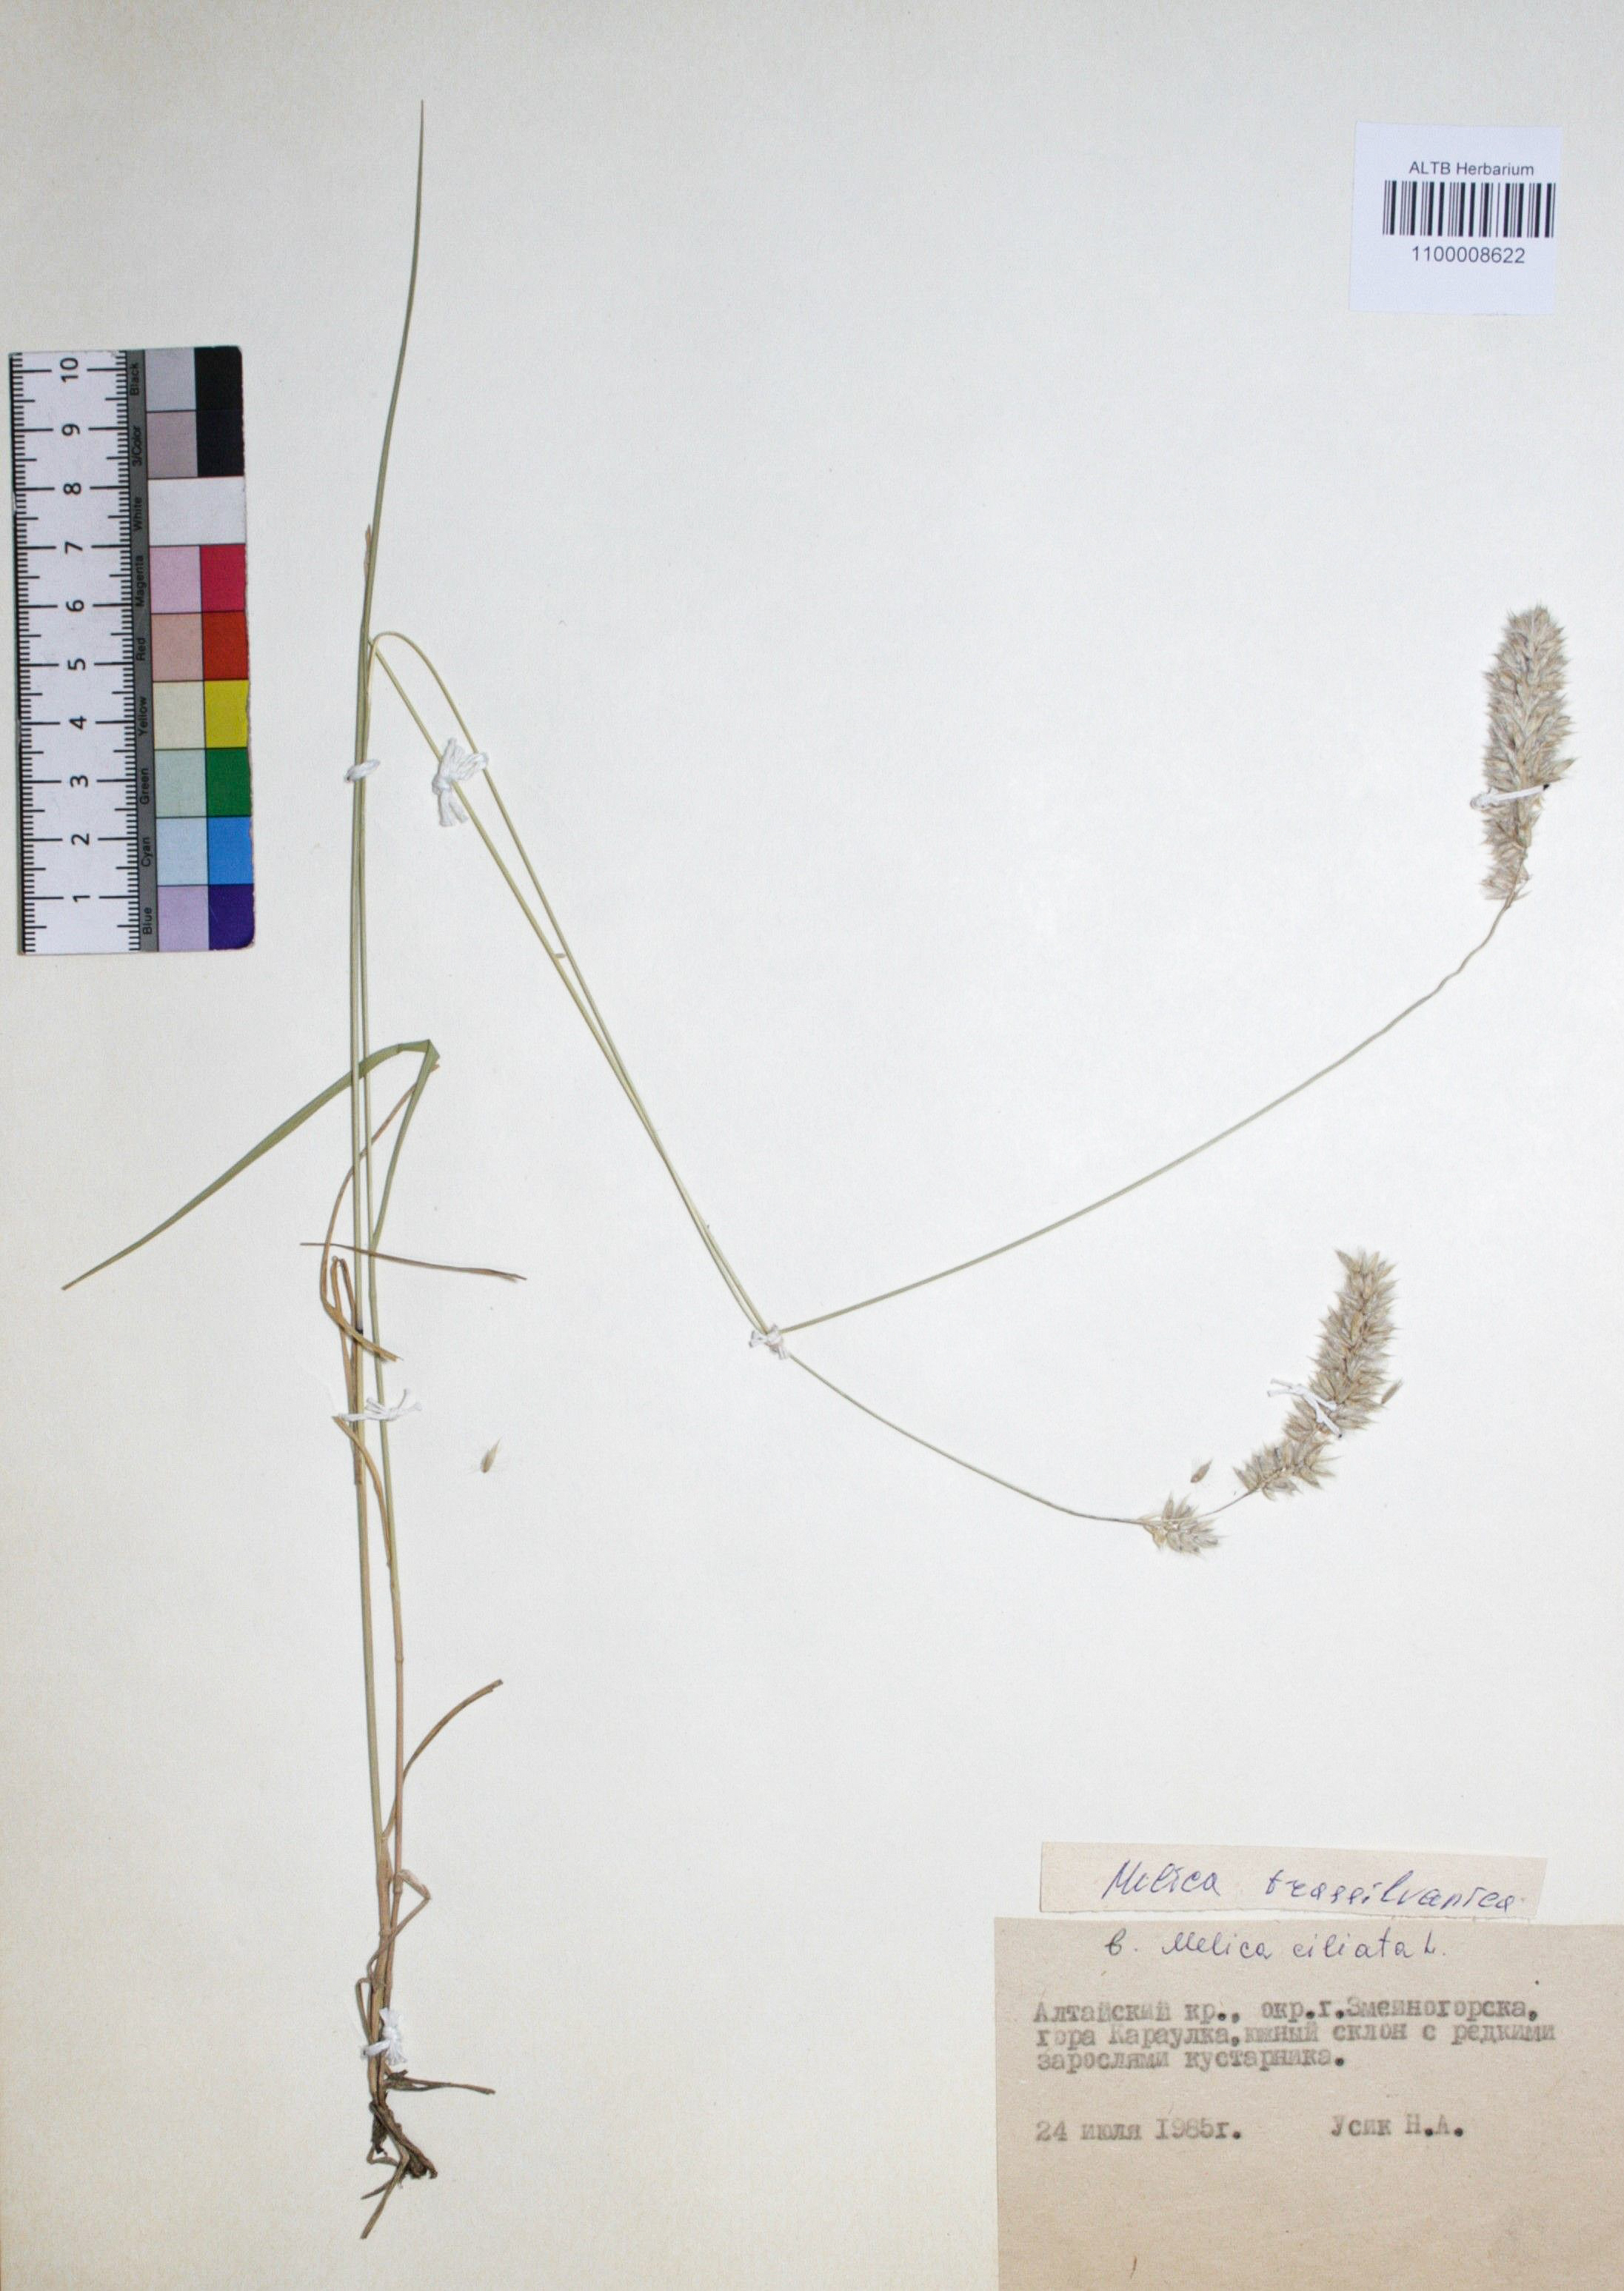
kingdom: Plantae
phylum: Tracheophyta
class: Liliopsida
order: Poales
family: Poaceae
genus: Melica
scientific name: Melica transsilvanica
